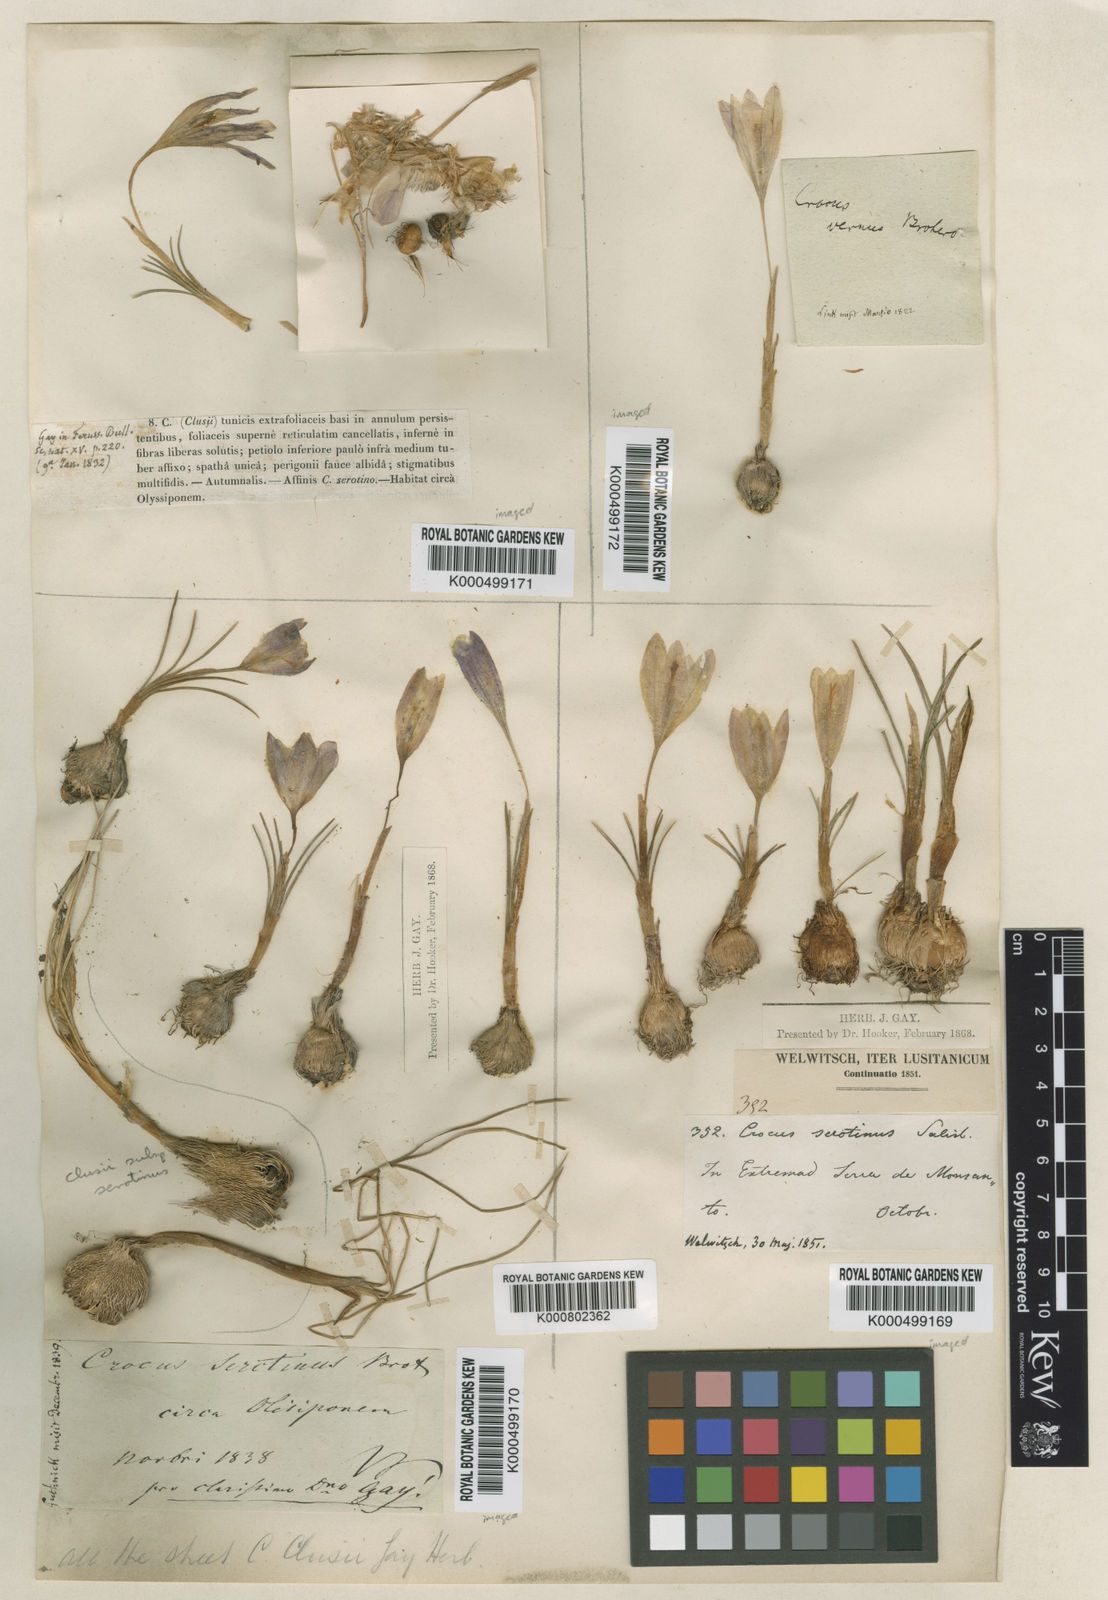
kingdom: Plantae
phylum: Tracheophyta
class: Liliopsida
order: Asparagales
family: Iridaceae
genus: Crocus
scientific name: Crocus clusii
